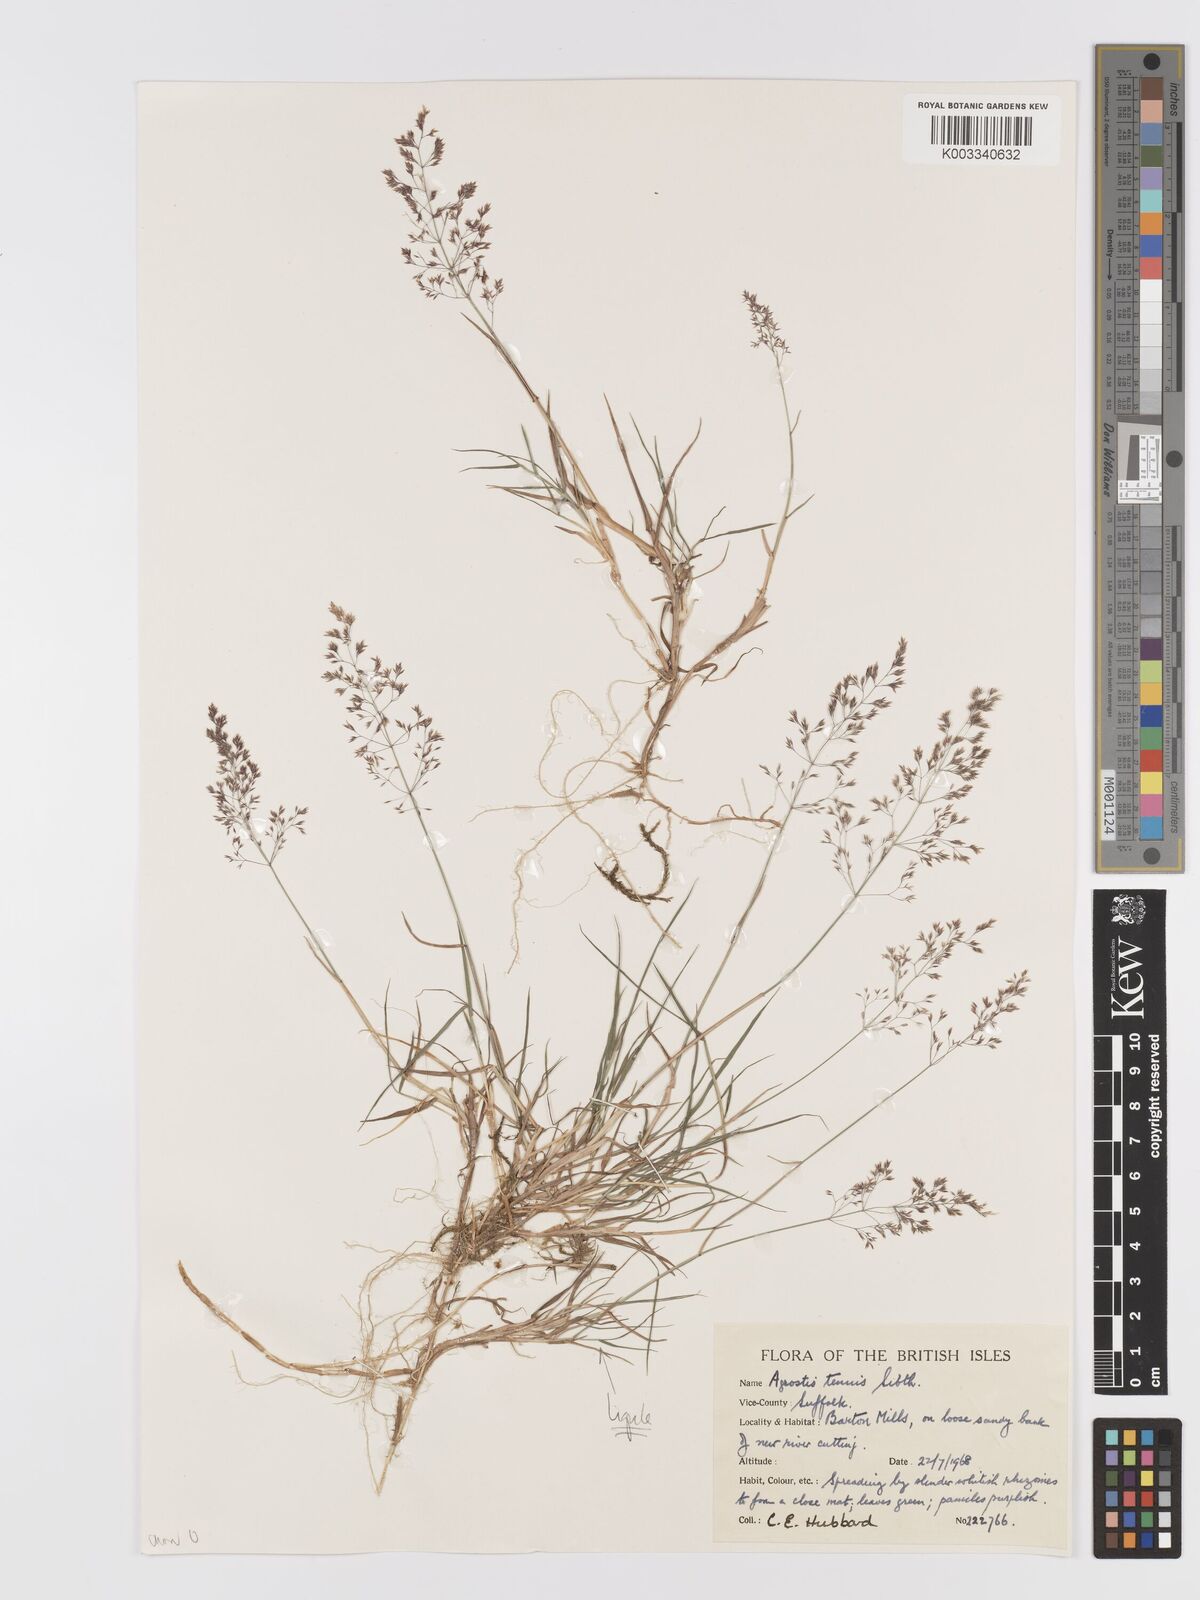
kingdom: Plantae
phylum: Tracheophyta
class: Liliopsida
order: Poales
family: Poaceae
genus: Agrostis
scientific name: Agrostis capillaris
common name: Colonial bentgrass
